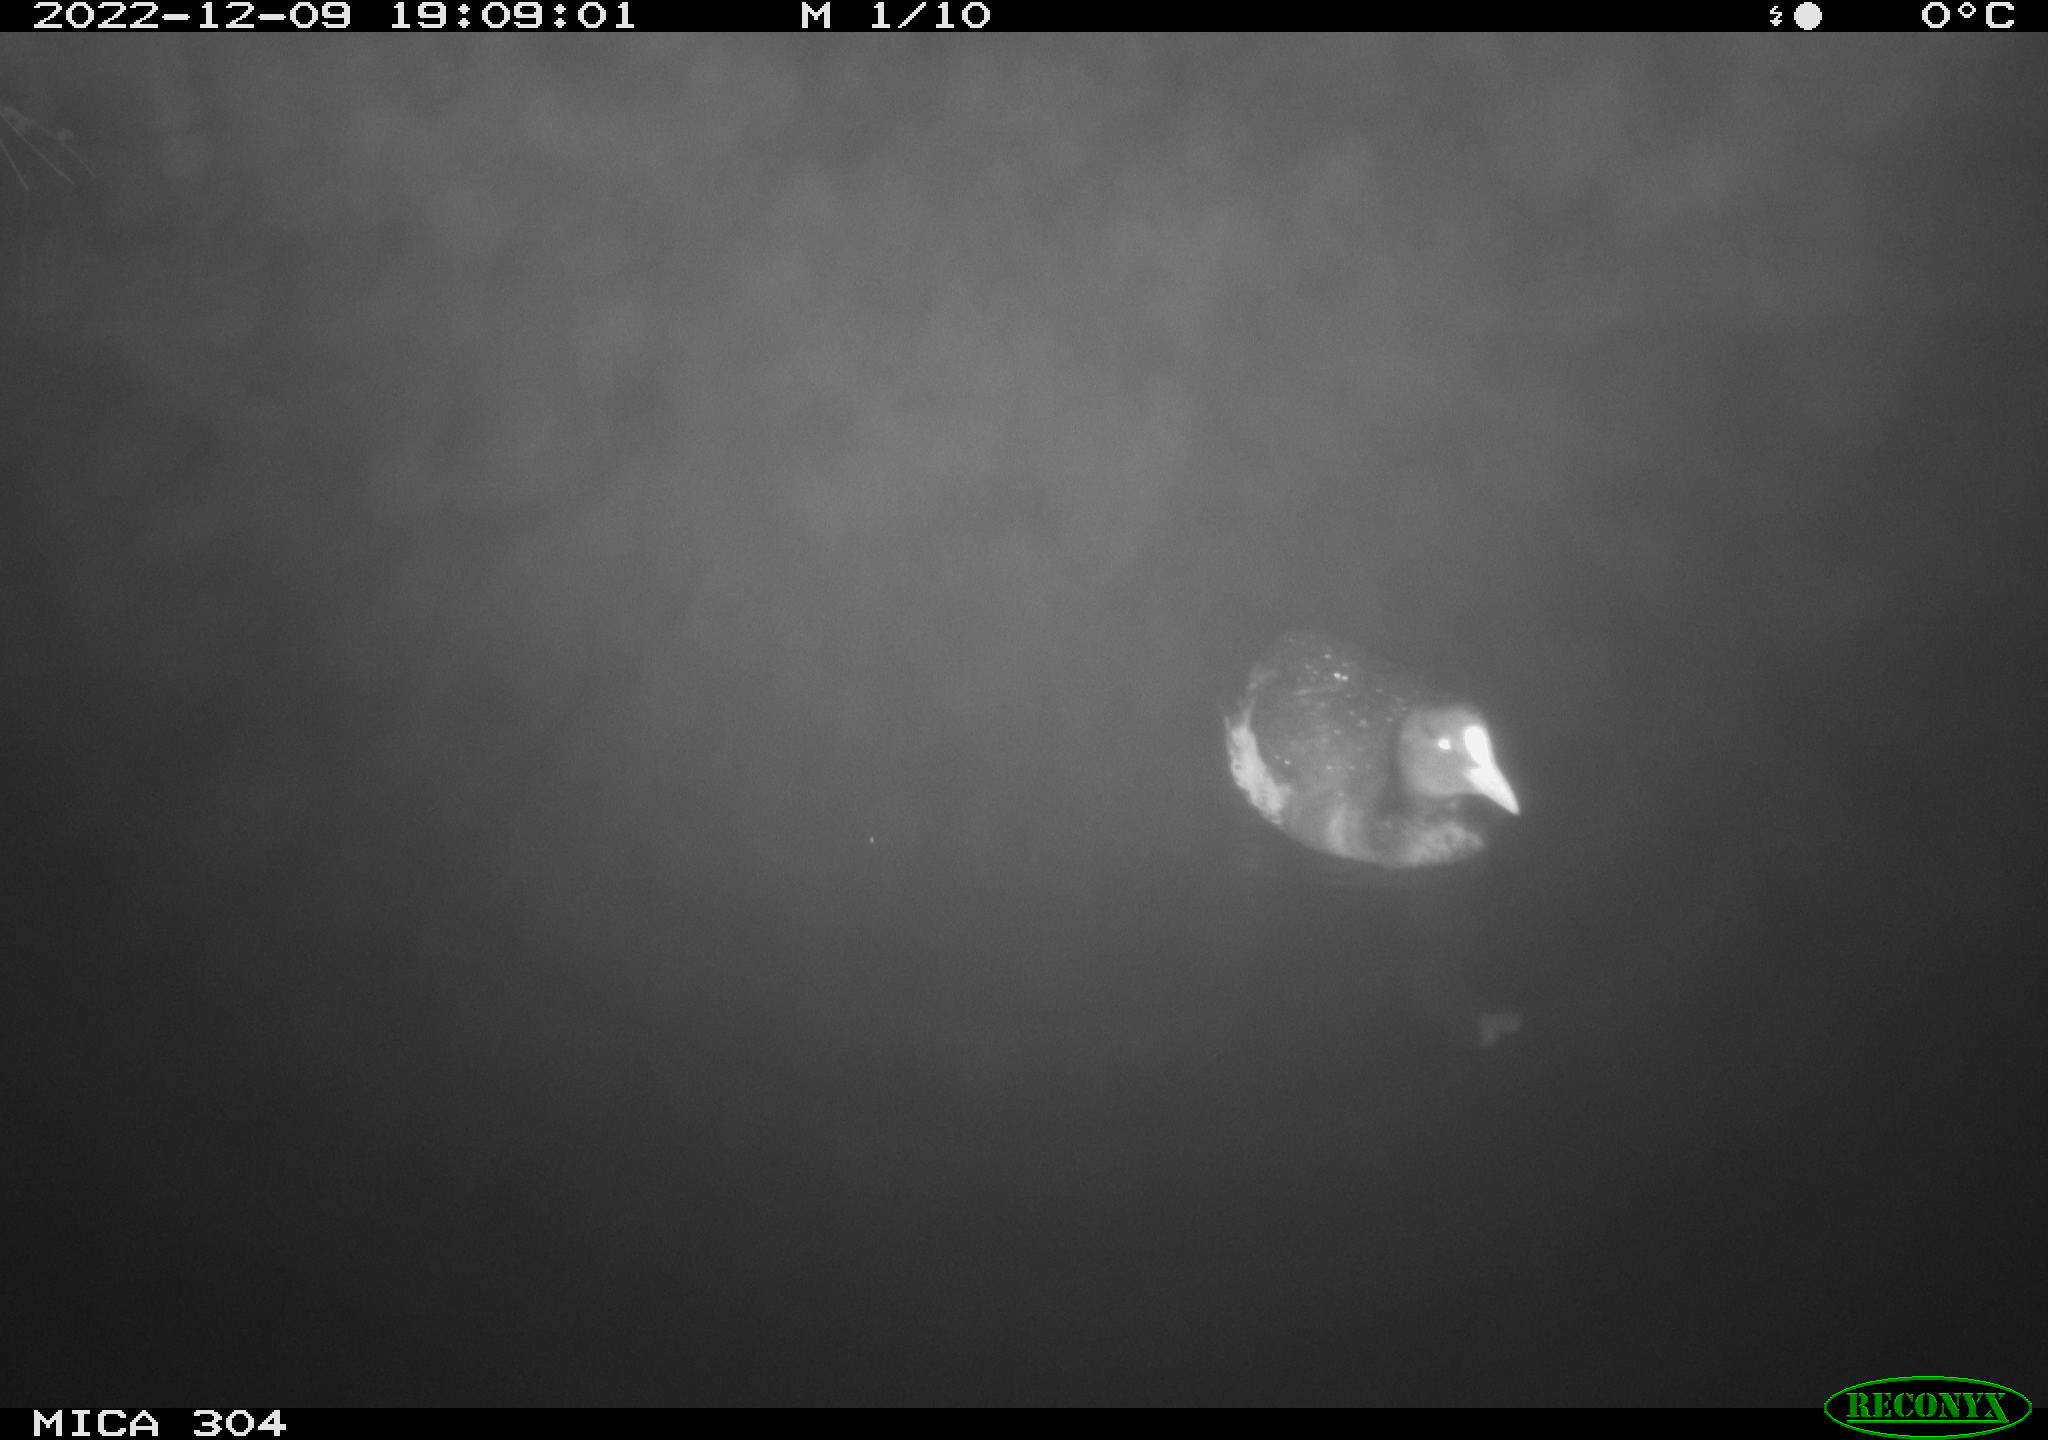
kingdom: Animalia
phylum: Chordata
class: Aves
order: Anseriformes
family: Anatidae
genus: Anas
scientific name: Anas
